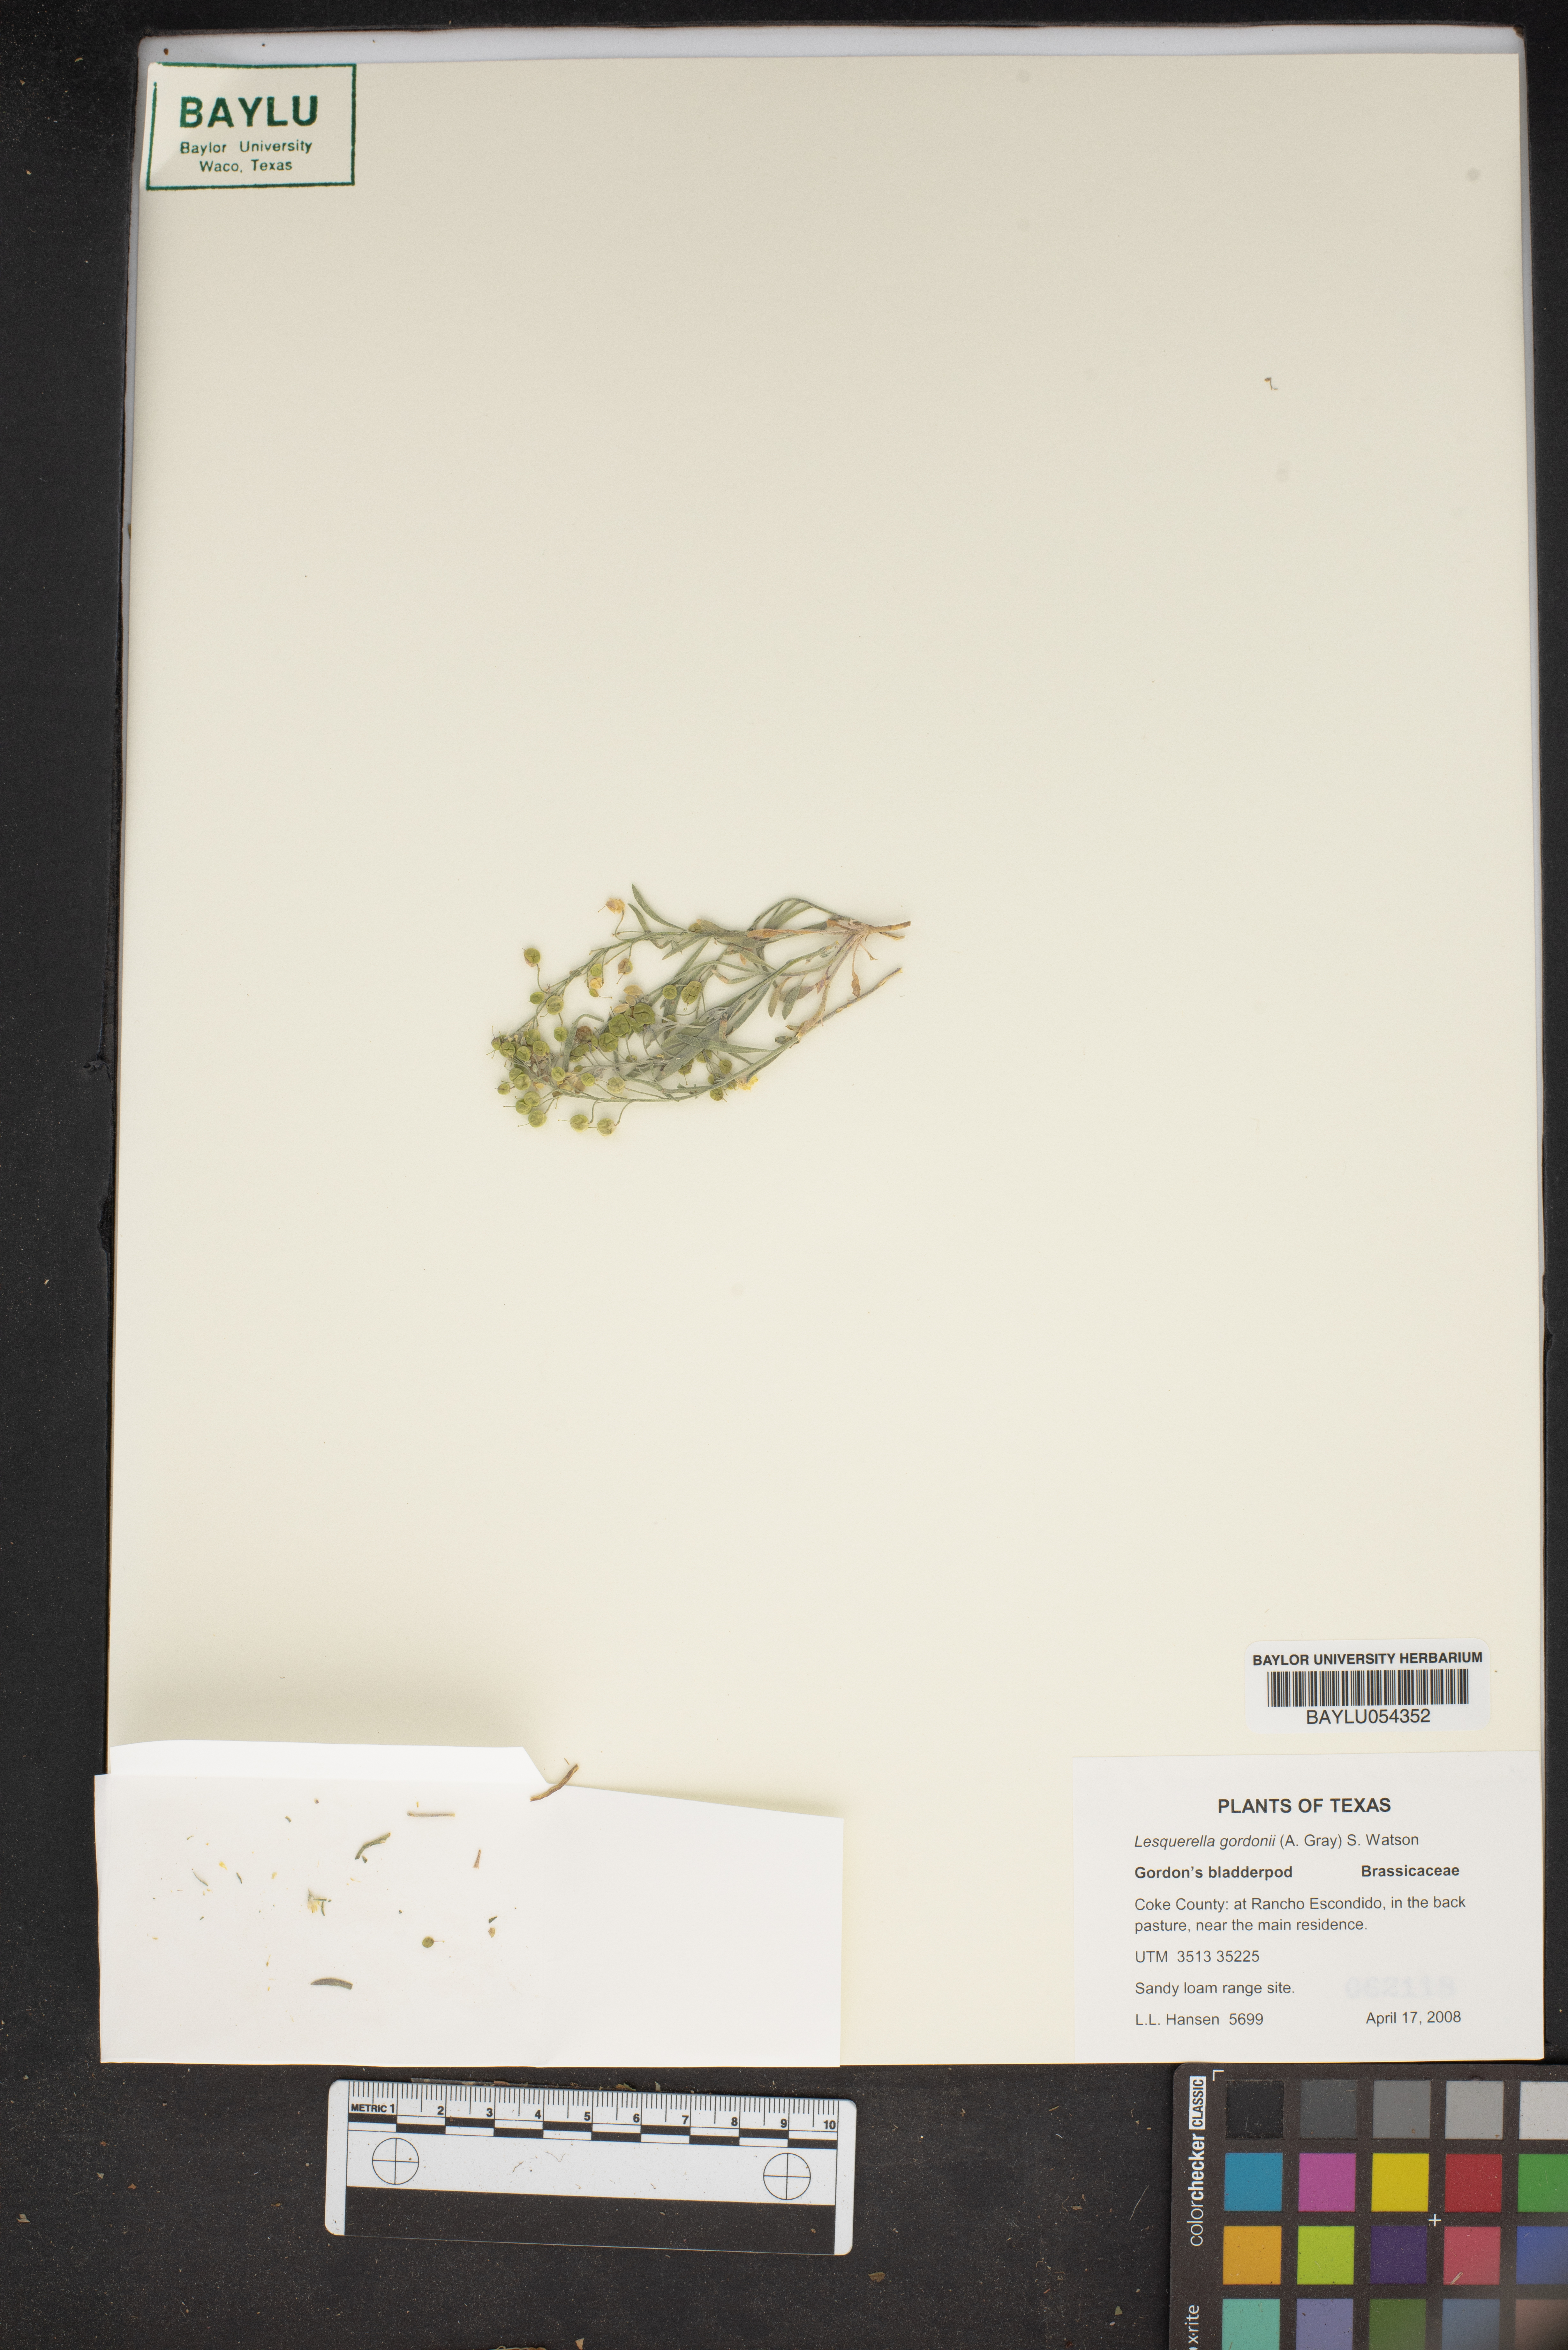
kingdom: Plantae
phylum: Tracheophyta
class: Magnoliopsida
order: Brassicales
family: Brassicaceae
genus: Physaria
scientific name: Physaria gordonii
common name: Gordon's bladderpod
